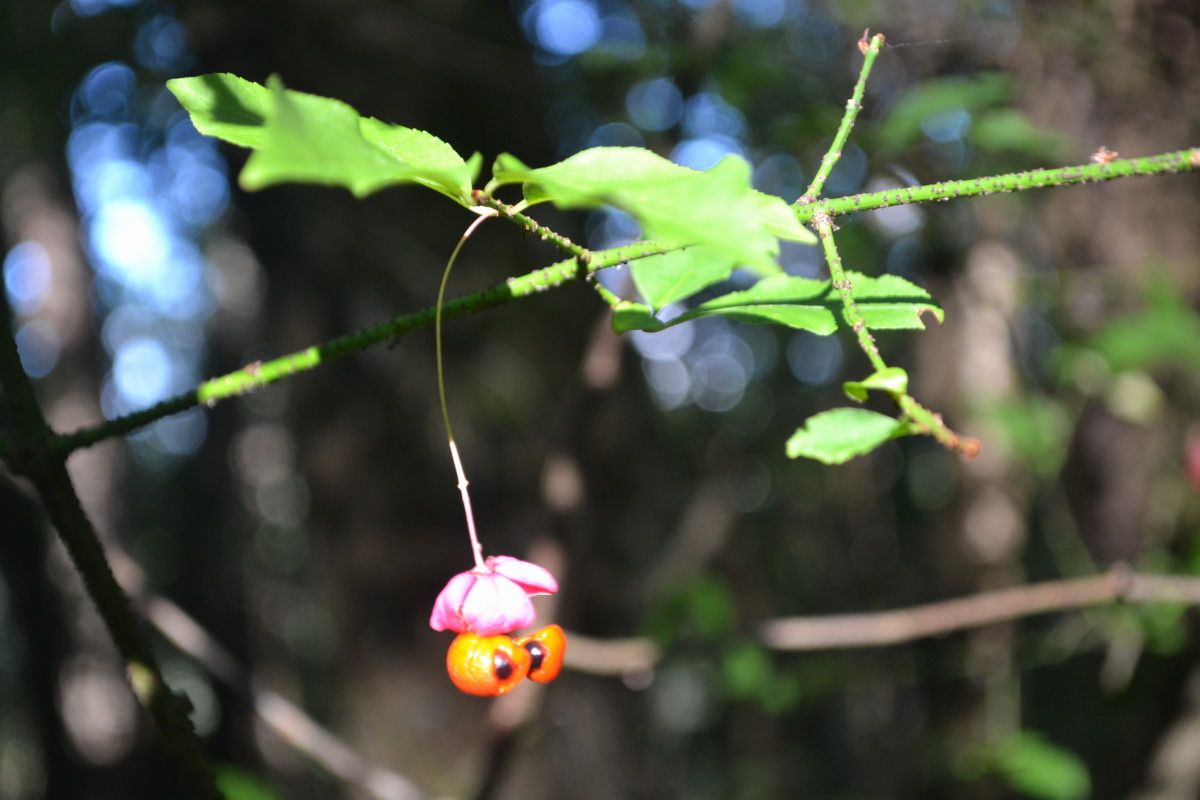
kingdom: Plantae
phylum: Tracheophyta
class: Magnoliopsida
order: Celastrales
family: Celastraceae
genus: Euonymus
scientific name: Euonymus verrucosus
